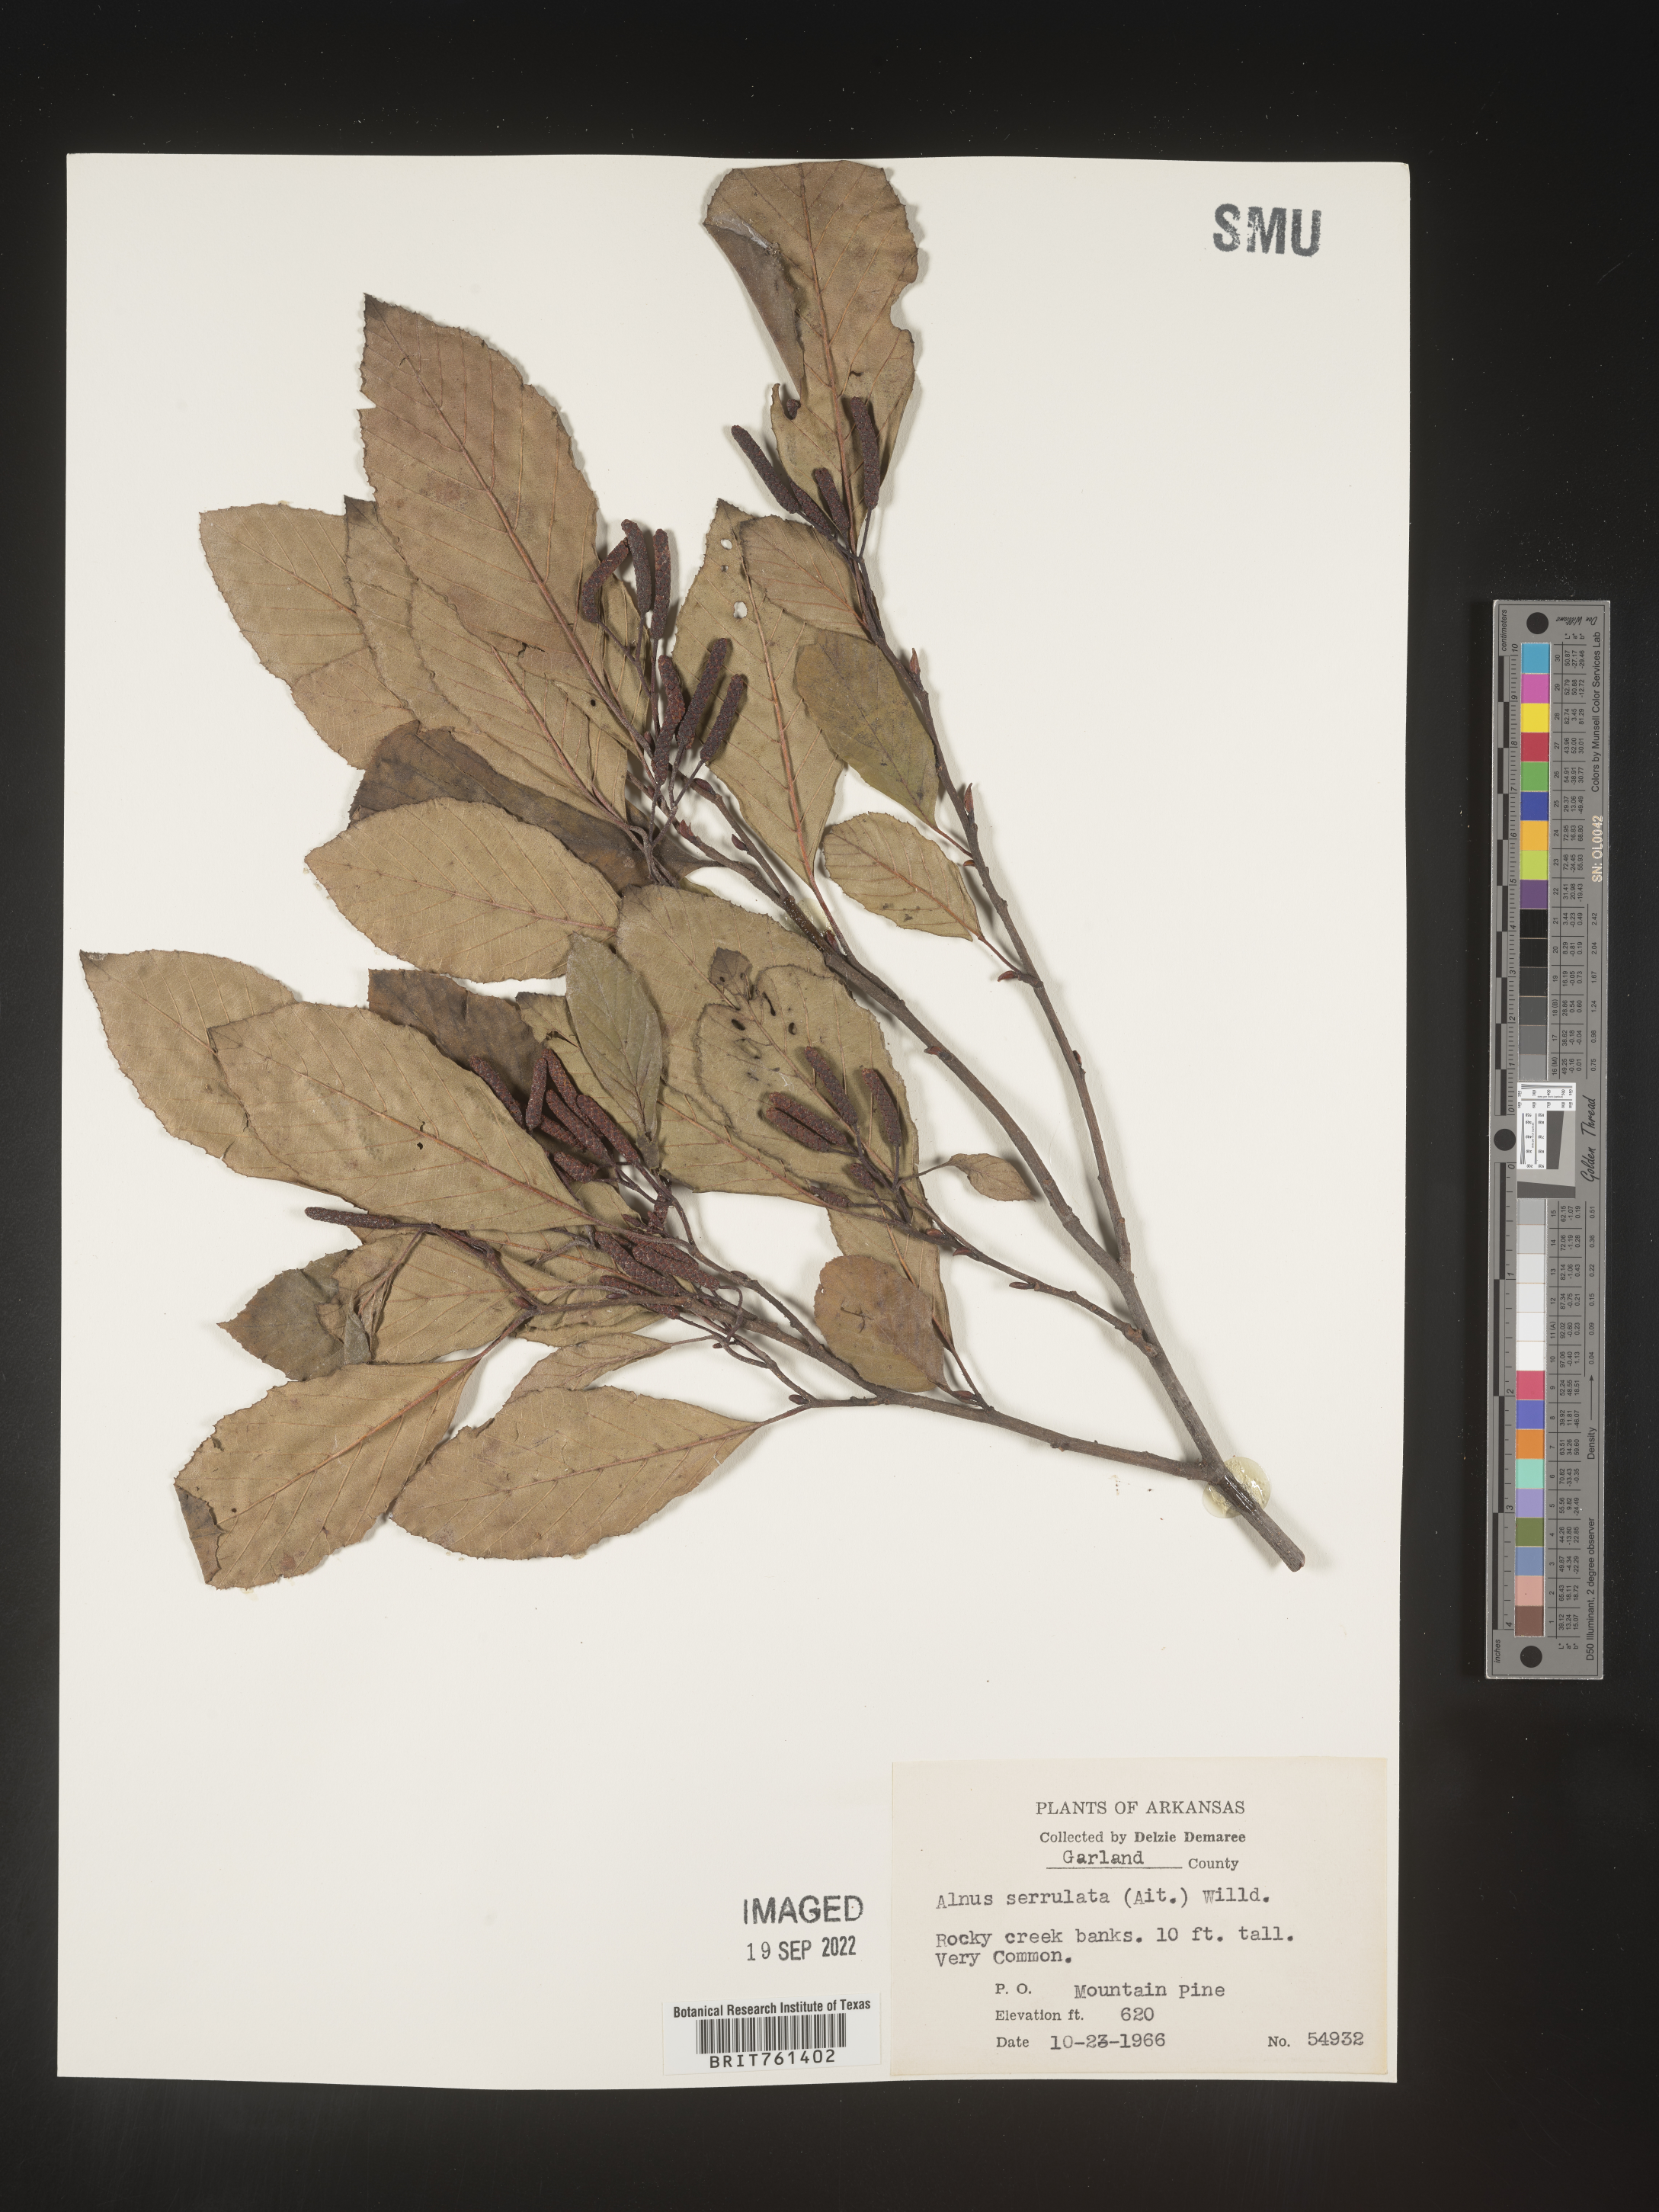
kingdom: Plantae
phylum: Tracheophyta
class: Magnoliopsida
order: Fagales
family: Betulaceae
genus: Alnus
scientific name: Alnus serrulata
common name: Hazel alder
